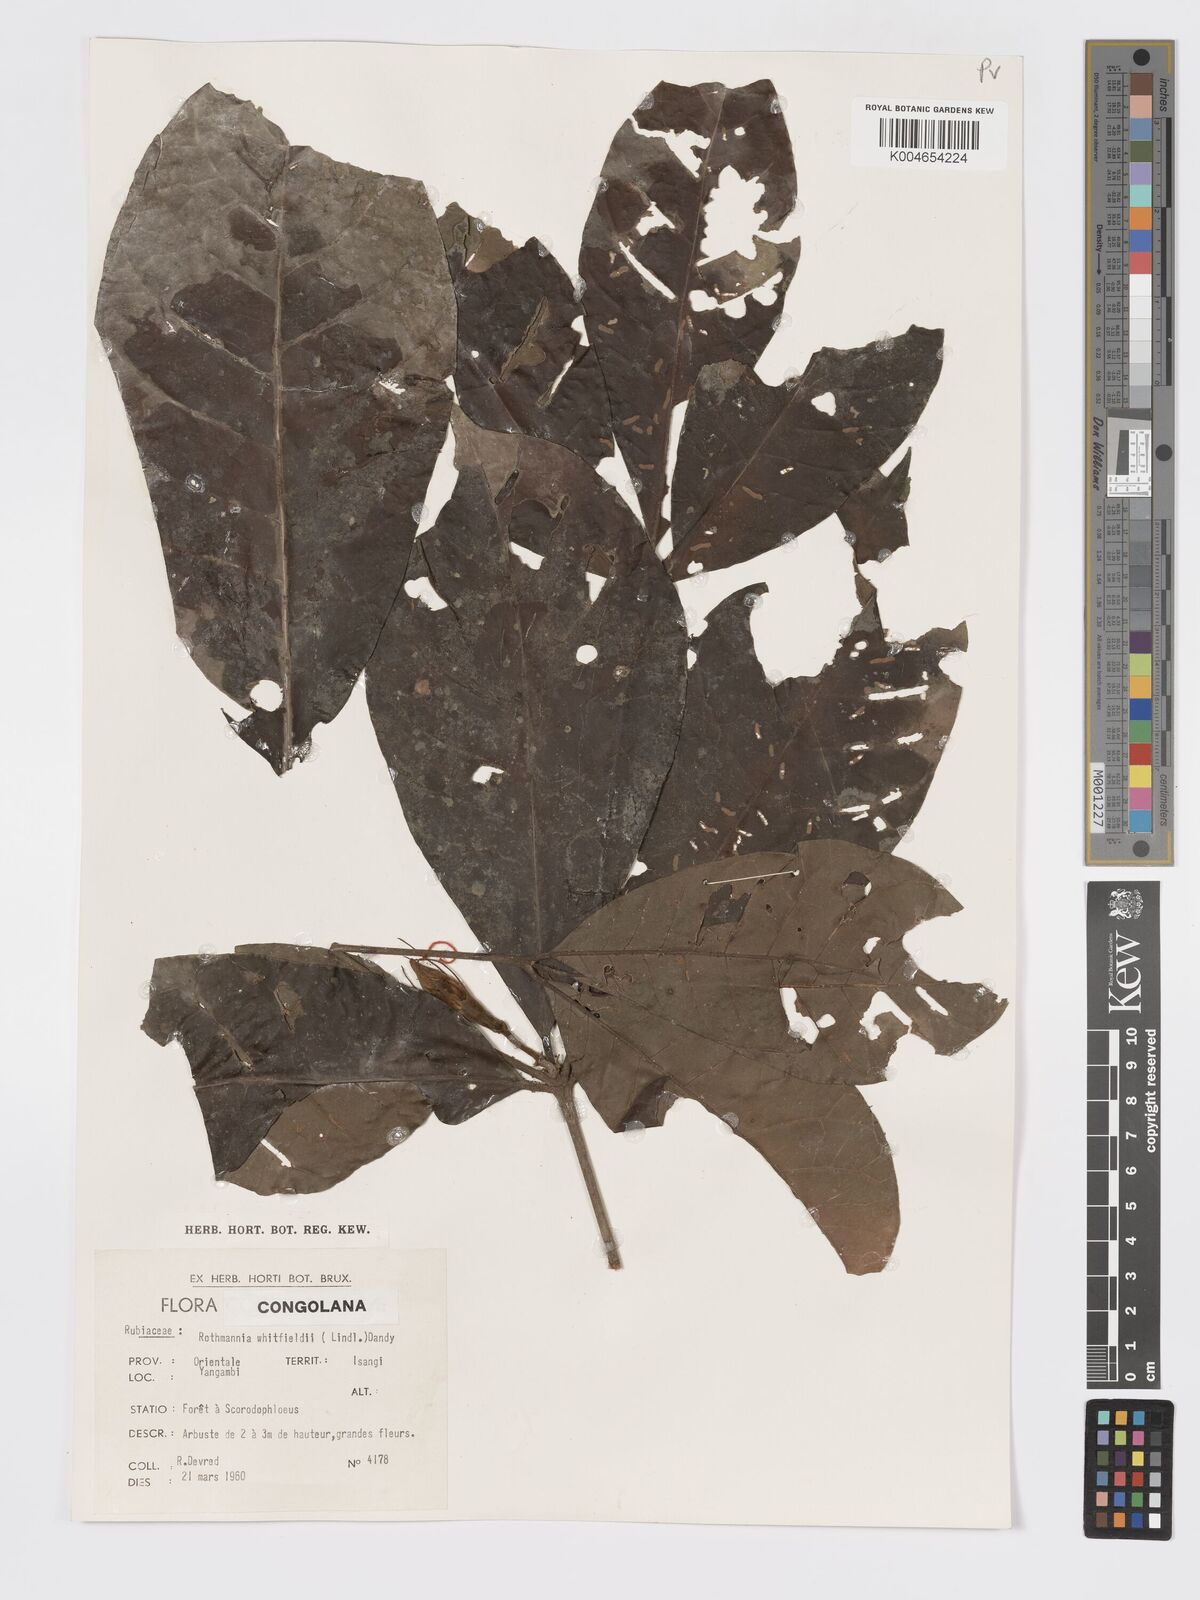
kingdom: Plantae
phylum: Tracheophyta
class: Magnoliopsida
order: Gentianales
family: Rubiaceae
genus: Rothmannia
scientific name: Rothmannia whitfieldii
